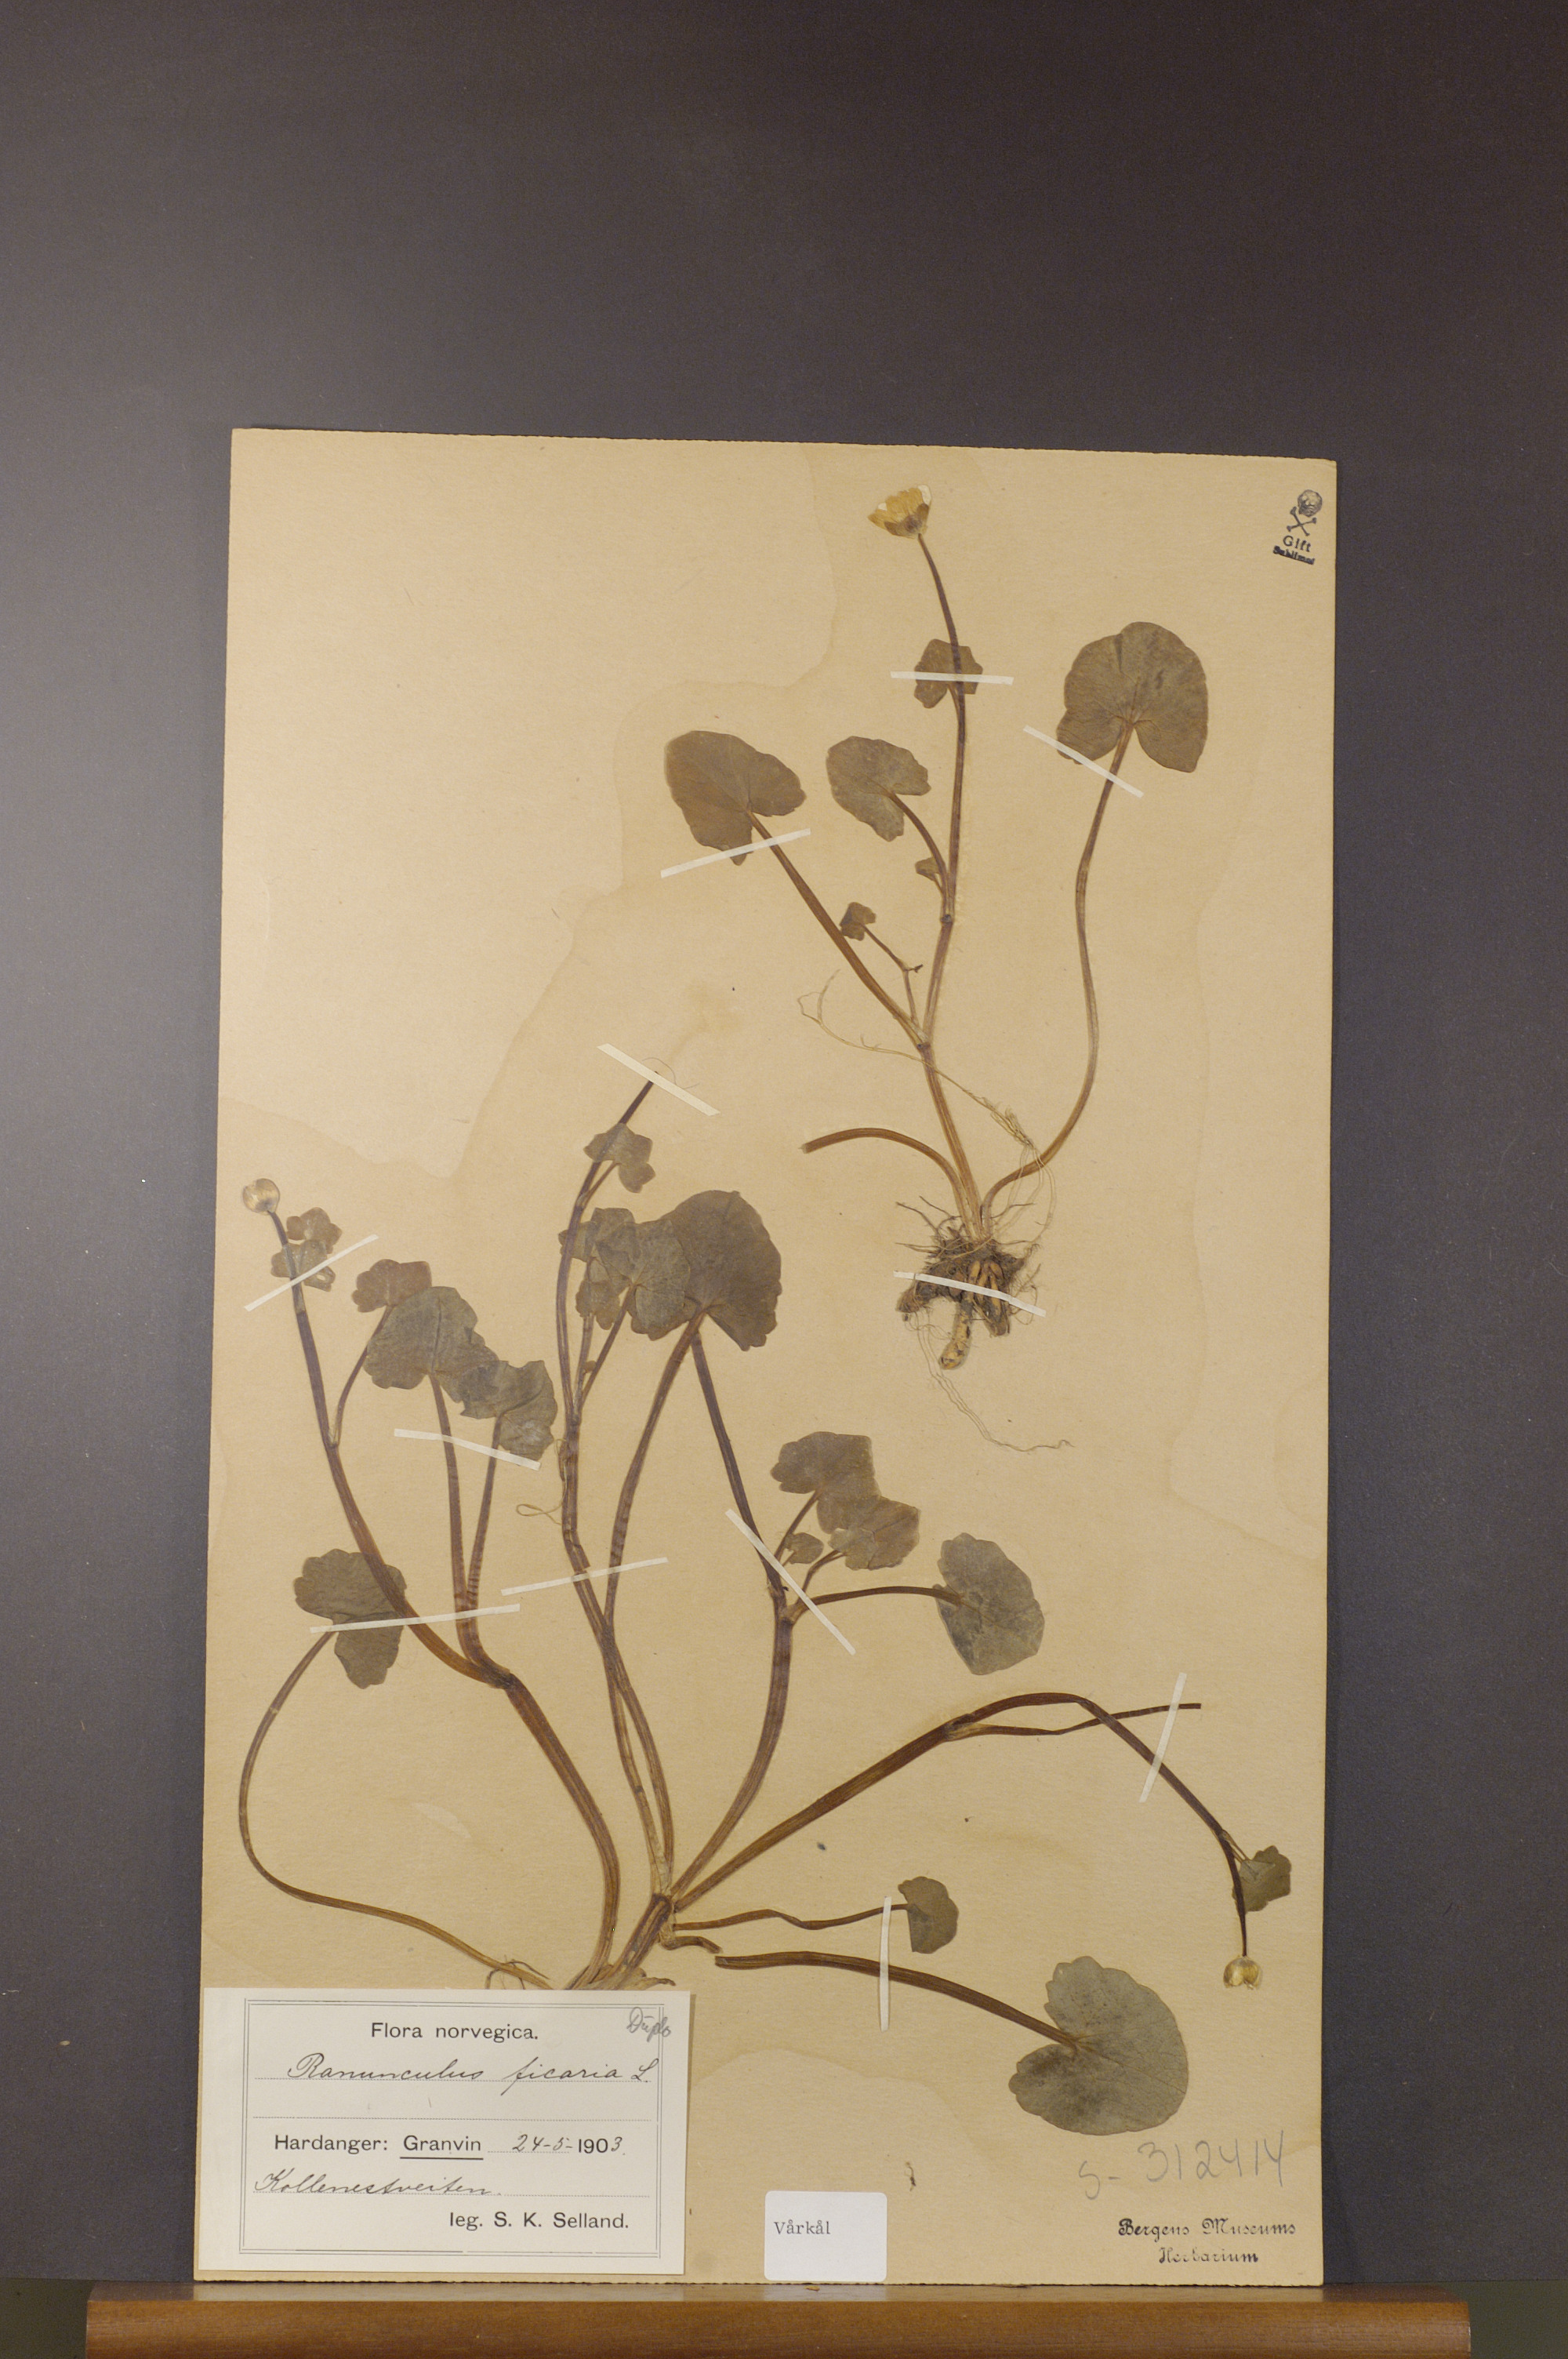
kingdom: Plantae
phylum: Tracheophyta
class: Magnoliopsida
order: Ranunculales
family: Ranunculaceae
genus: Ficaria
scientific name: Ficaria verna
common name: Lesser celandine
